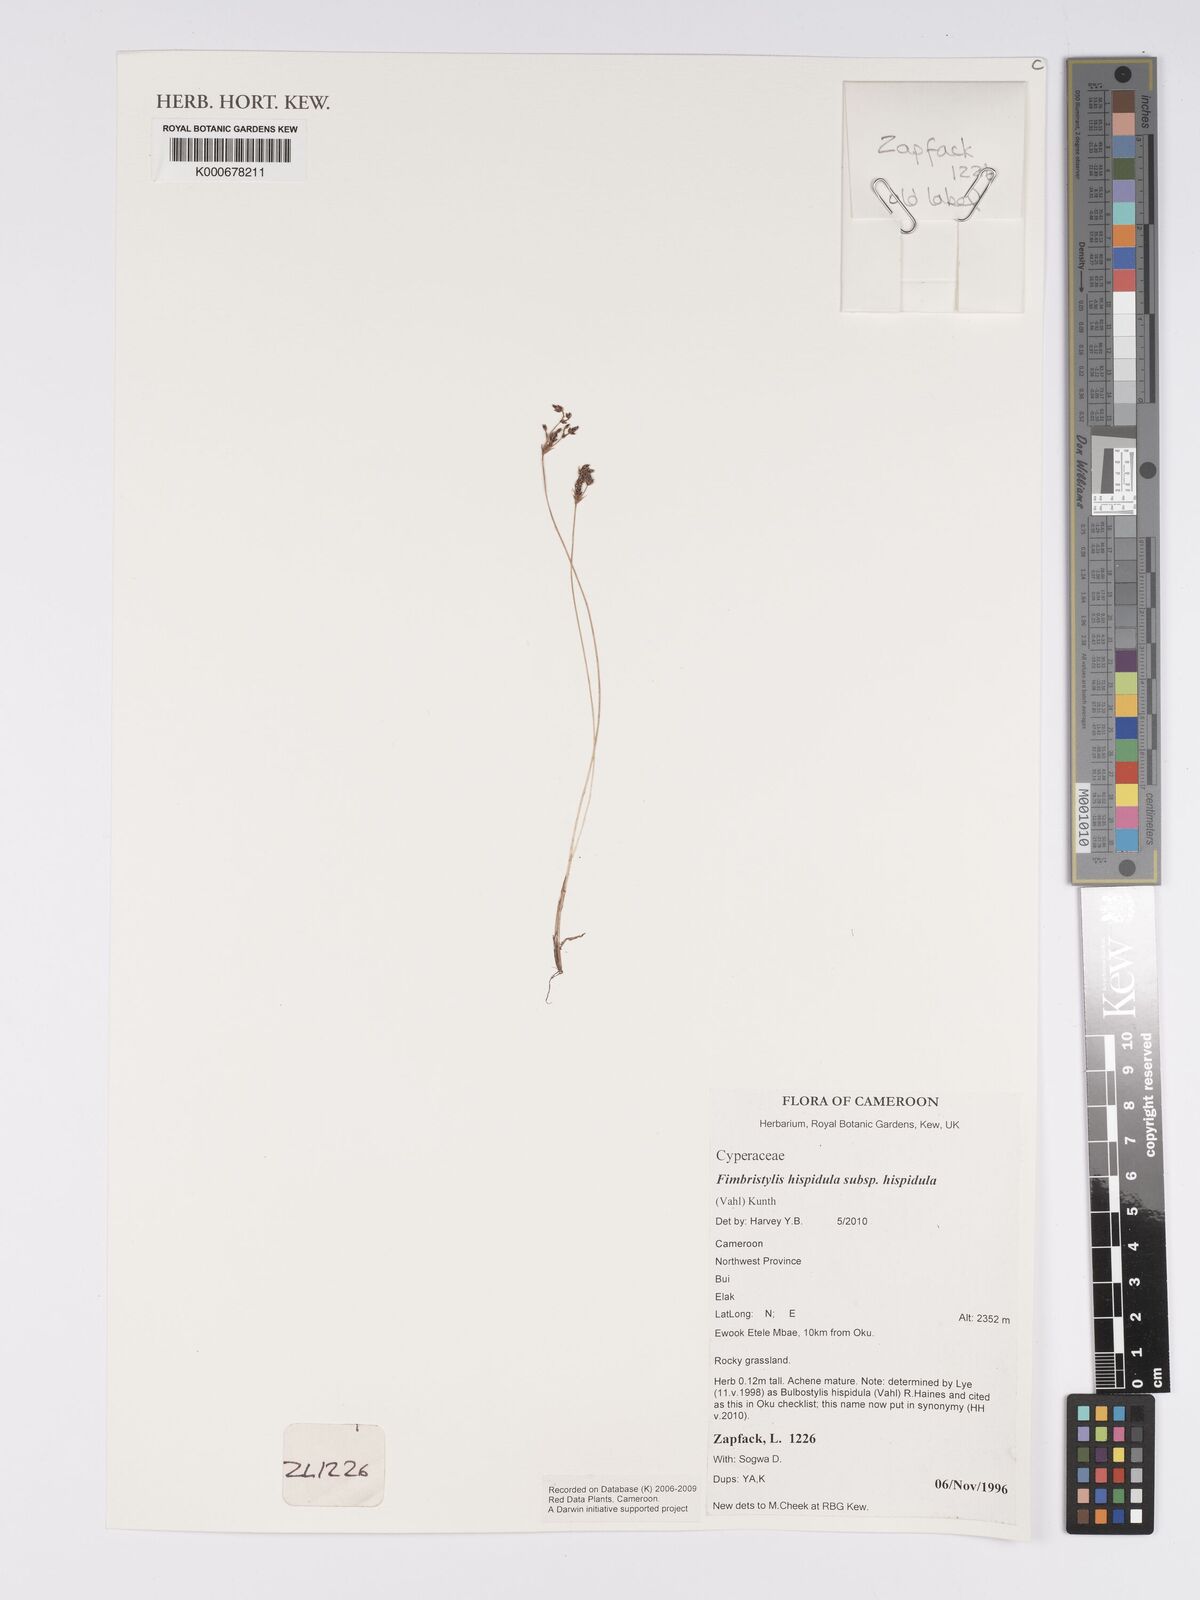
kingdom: Plantae
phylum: Tracheophyta
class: Liliopsida
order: Poales
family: Cyperaceae
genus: Bulbostylis
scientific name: Bulbostylis hispidula
